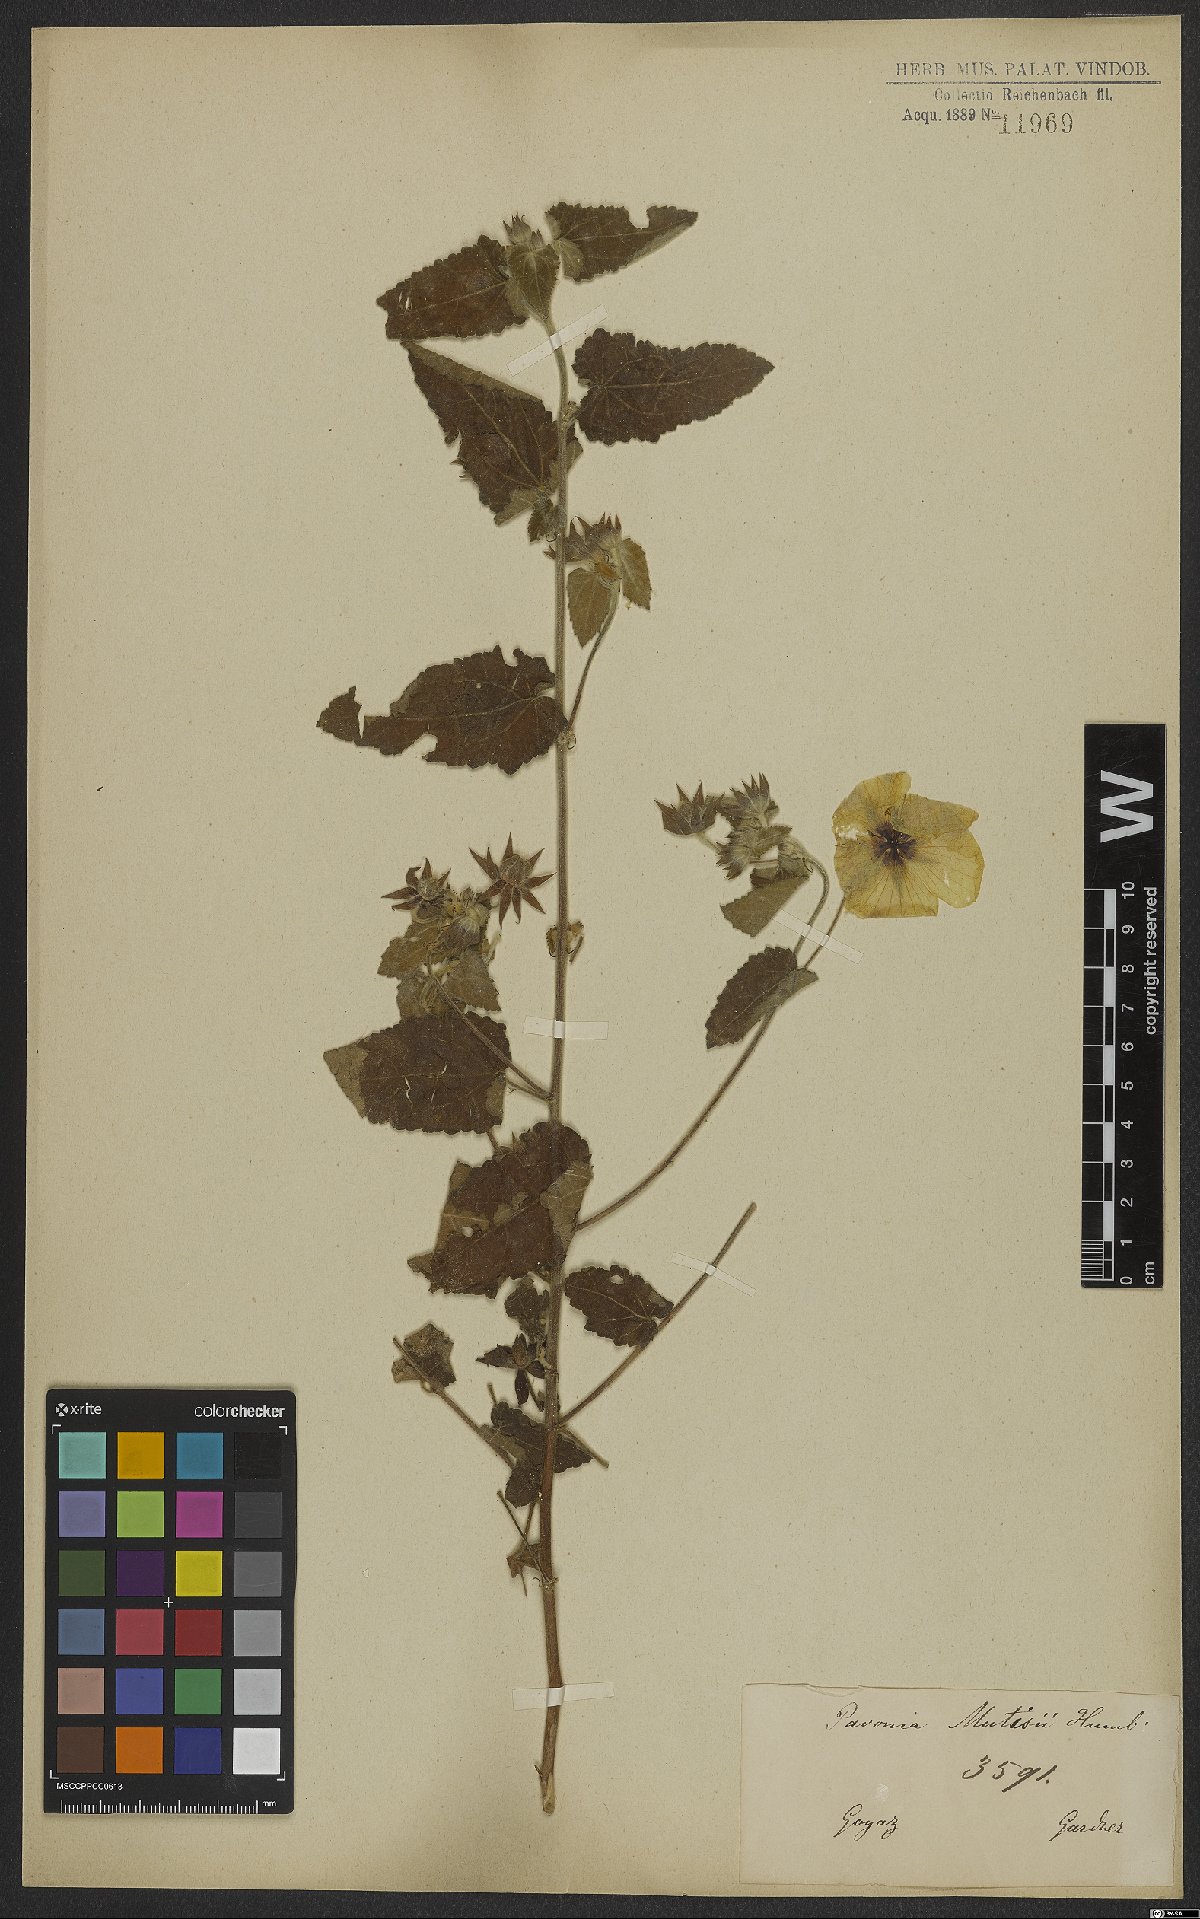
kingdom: Plantae
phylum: Tracheophyta
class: Magnoliopsida
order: Malvales
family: Malvaceae
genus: Pavonia
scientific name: Pavonia sidifolia
